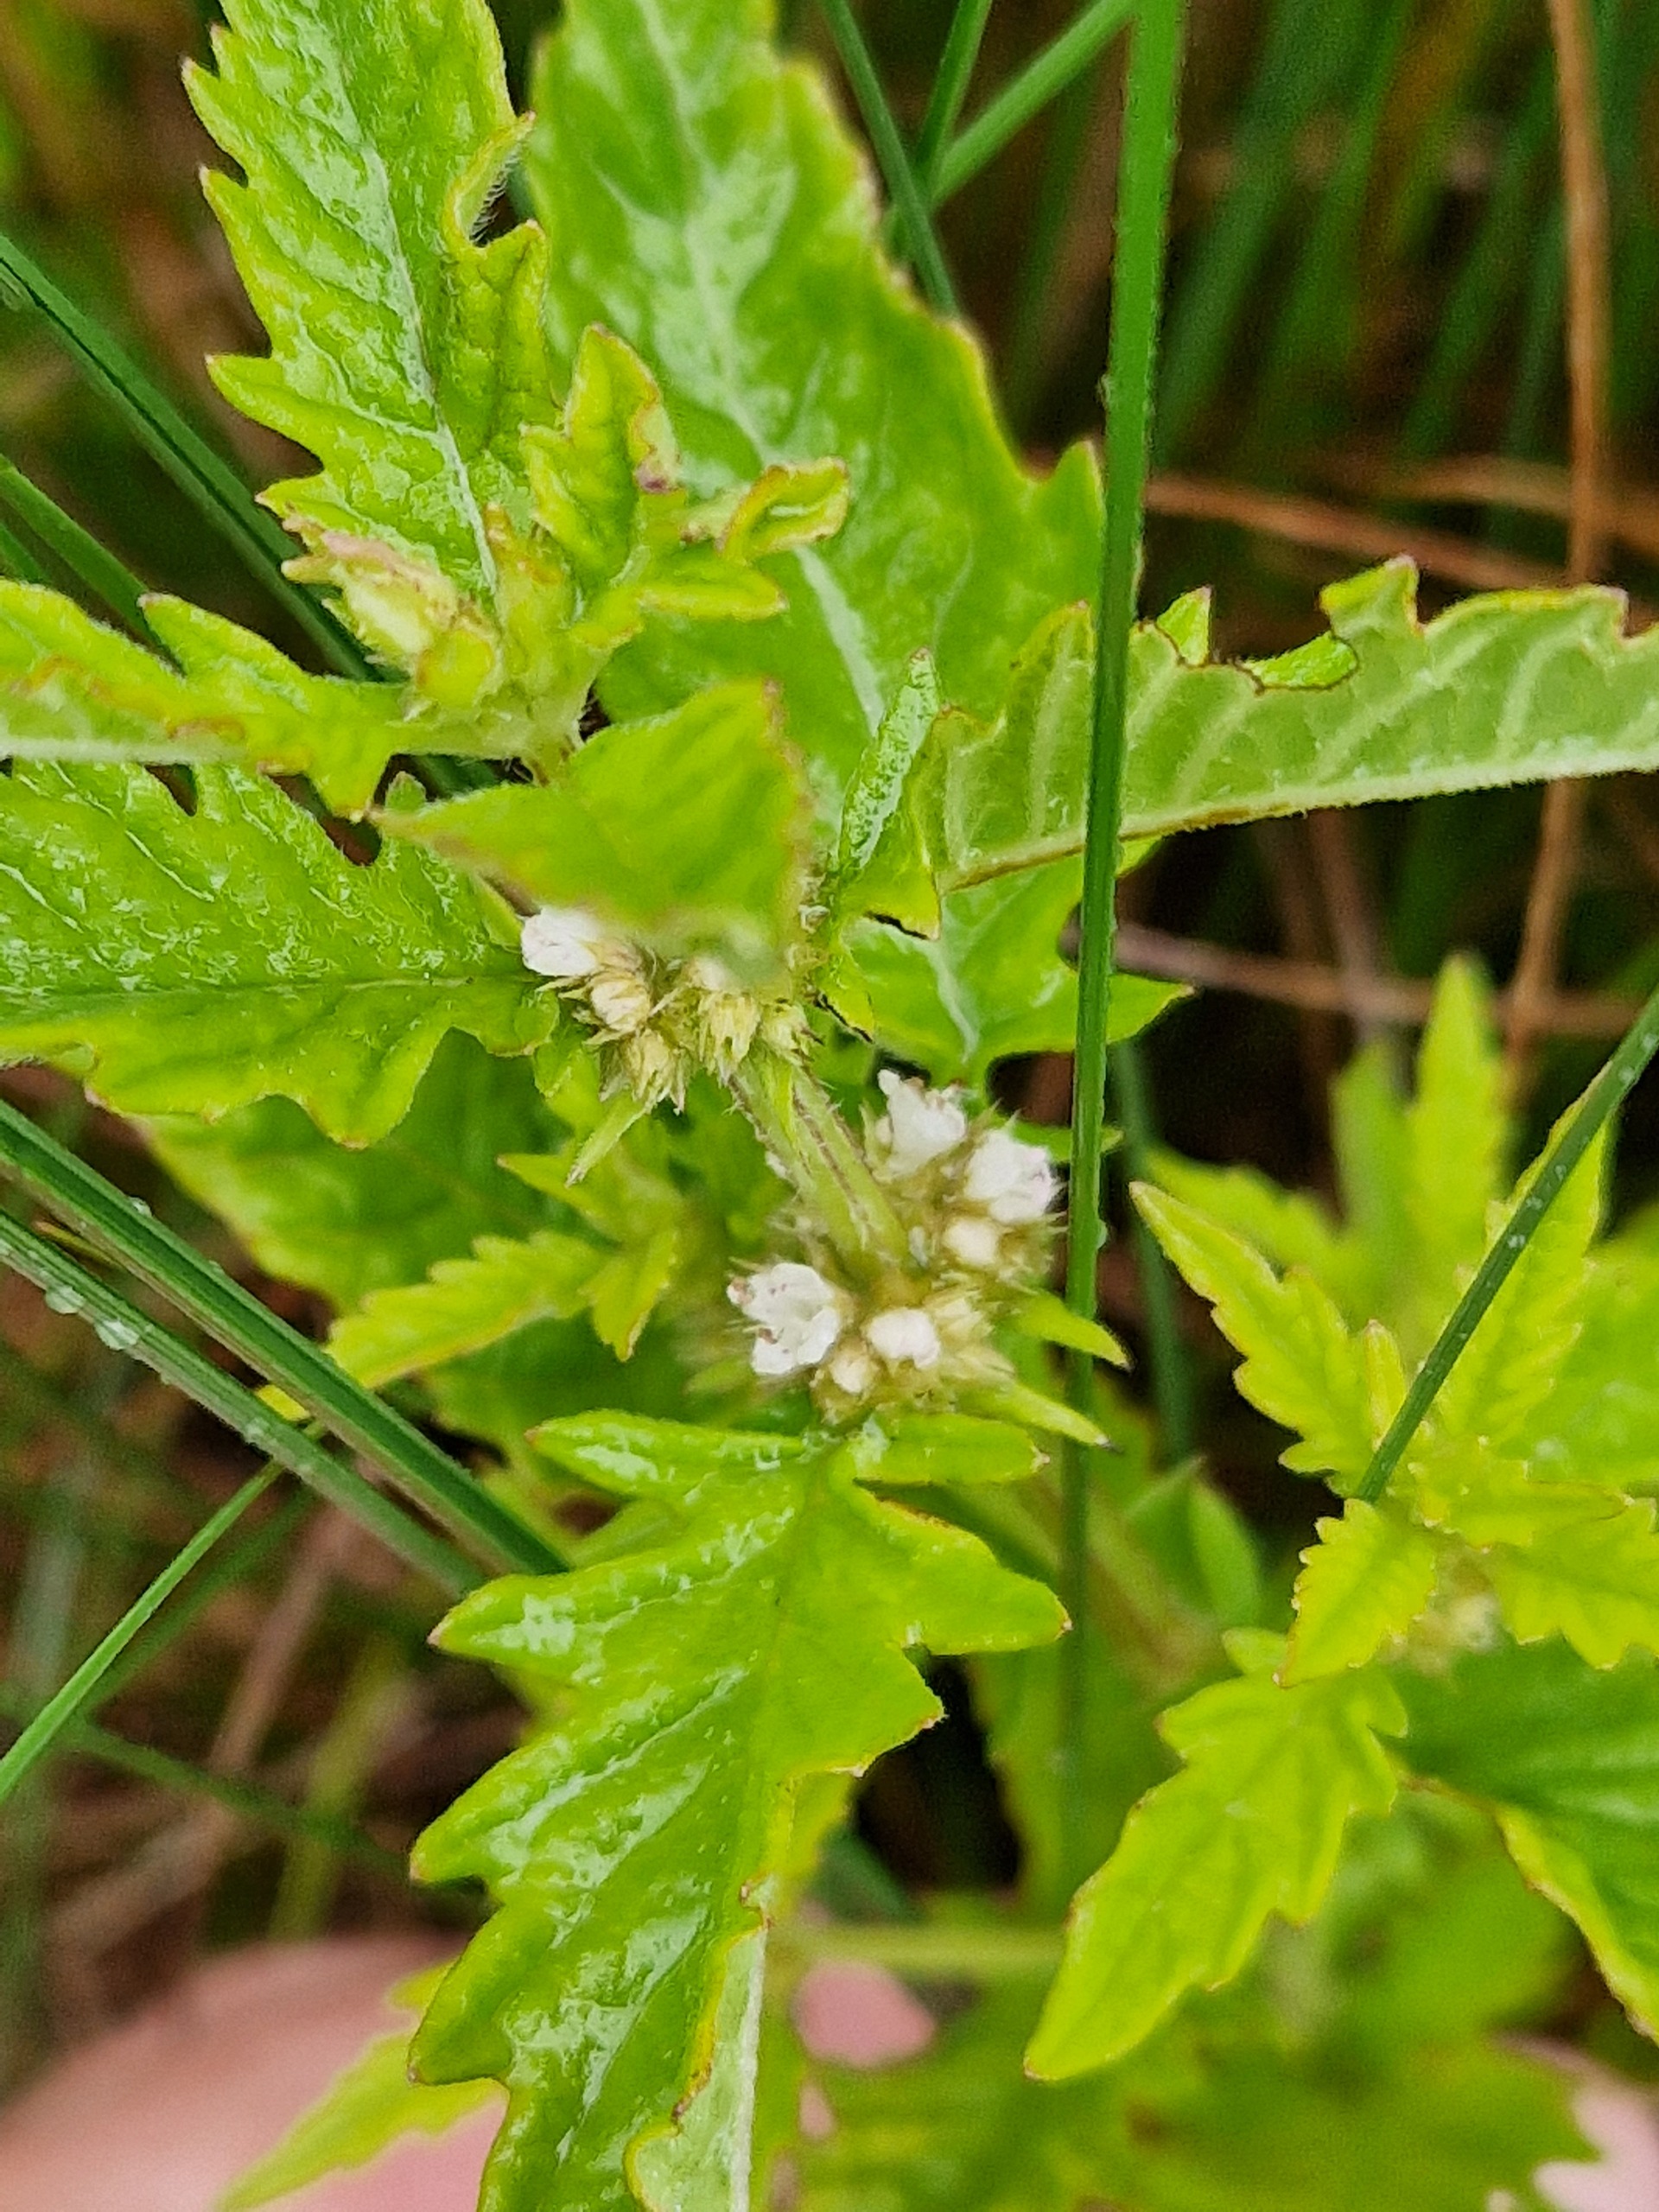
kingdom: Plantae
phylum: Tracheophyta
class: Magnoliopsida
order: Lamiales
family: Lamiaceae
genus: Lycopus
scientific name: Lycopus europaeus
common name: Sværtevæld
